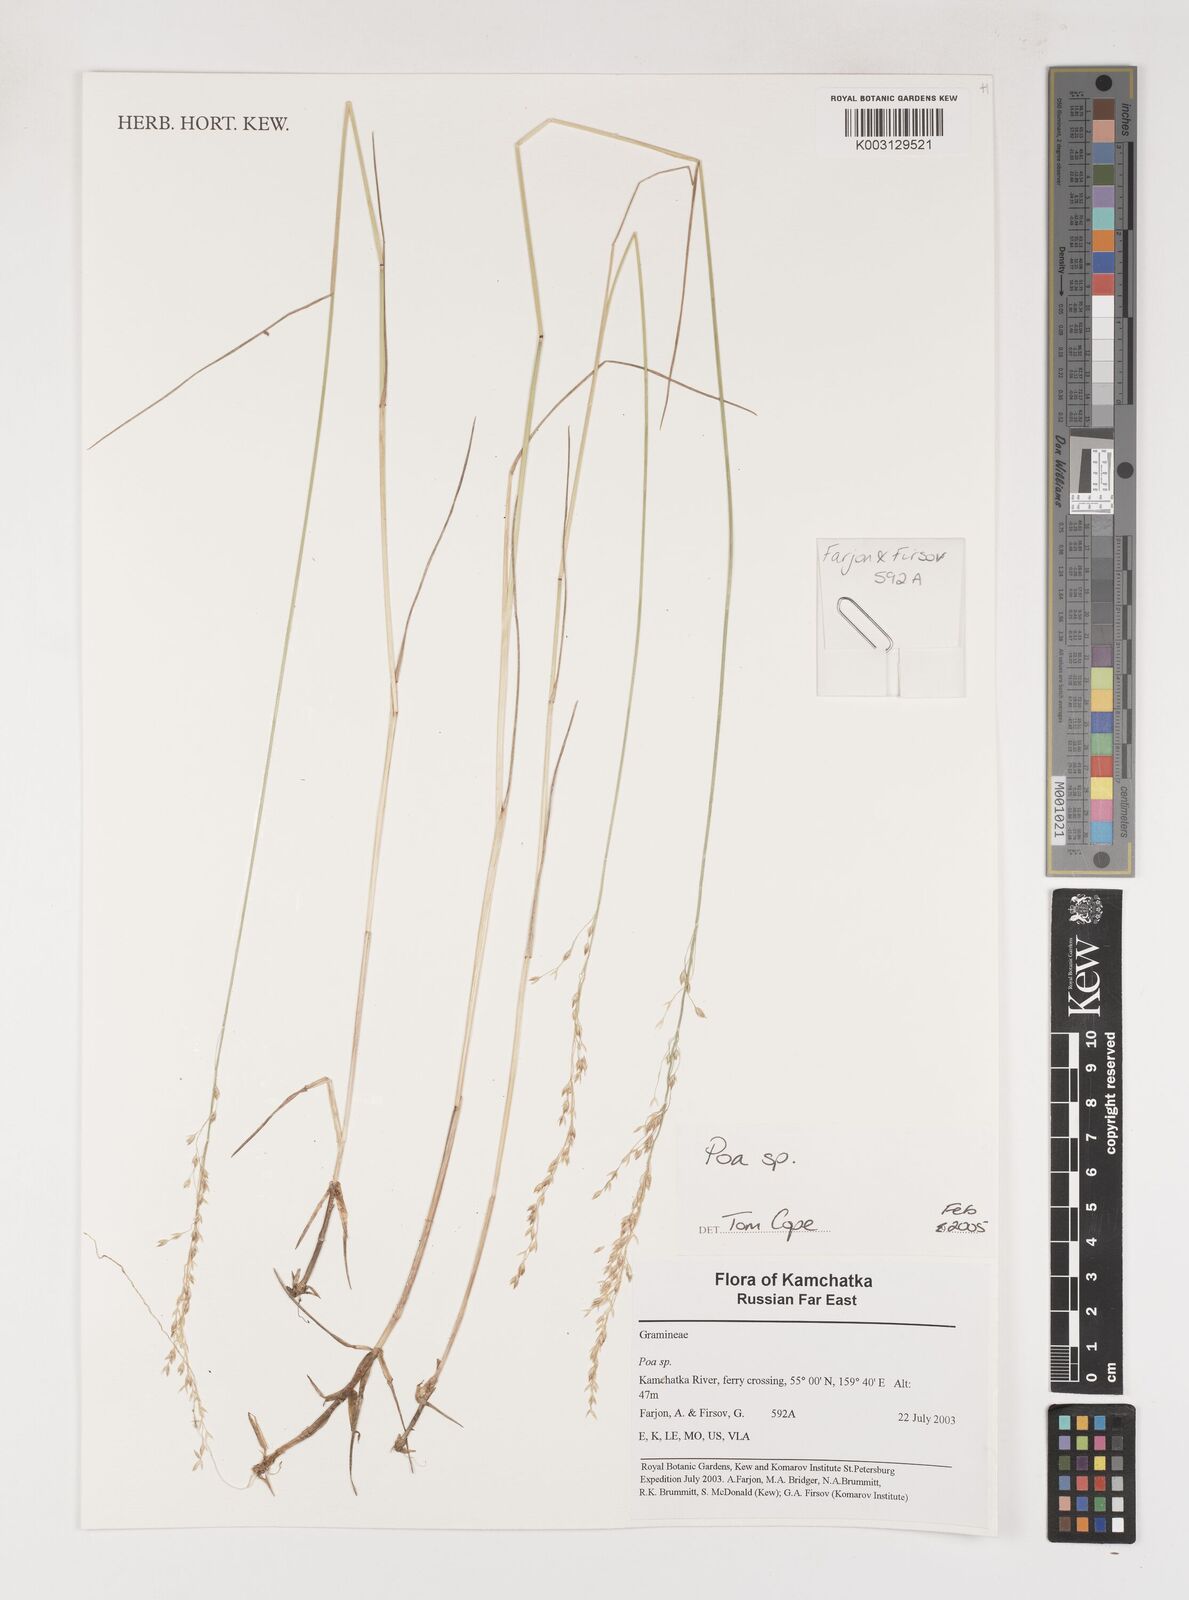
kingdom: Plantae
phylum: Tracheophyta
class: Liliopsida
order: Poales
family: Poaceae
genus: Poa
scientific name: Poa
